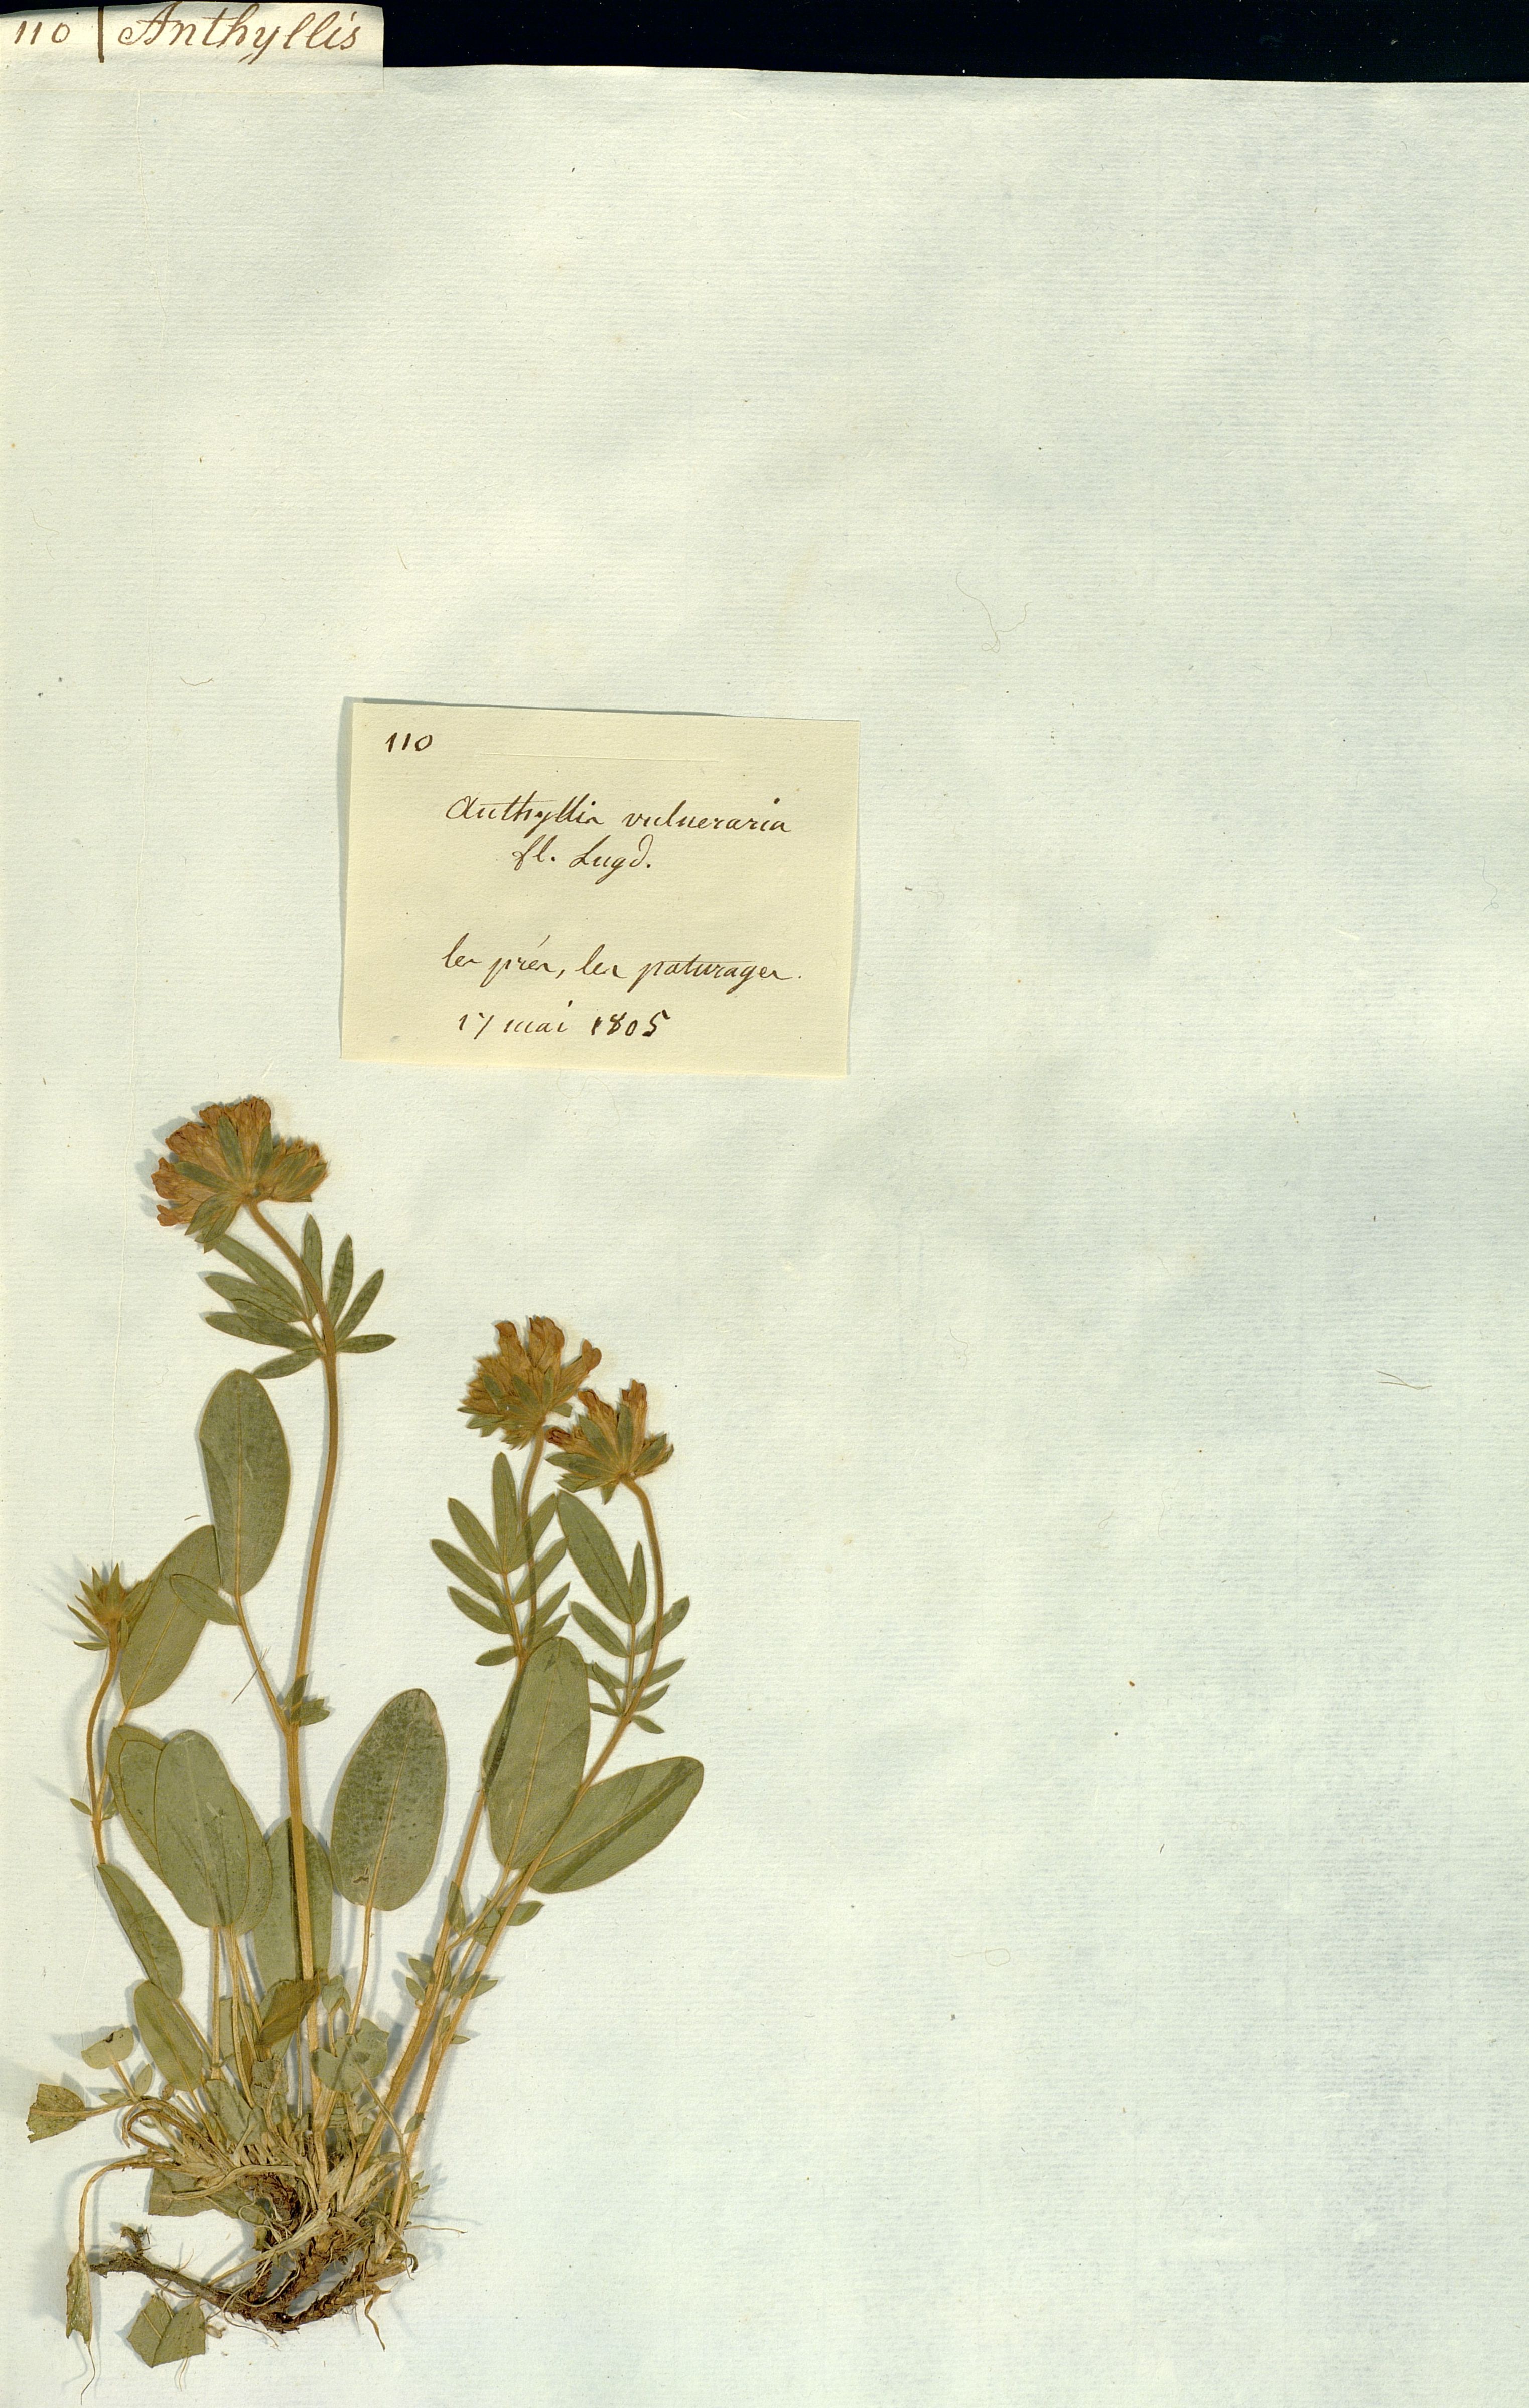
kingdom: Plantae
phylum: Tracheophyta
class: Magnoliopsida
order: Fabales
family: Fabaceae
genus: Anthyllis
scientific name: Anthyllis vulneraria
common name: Kidney vetch
